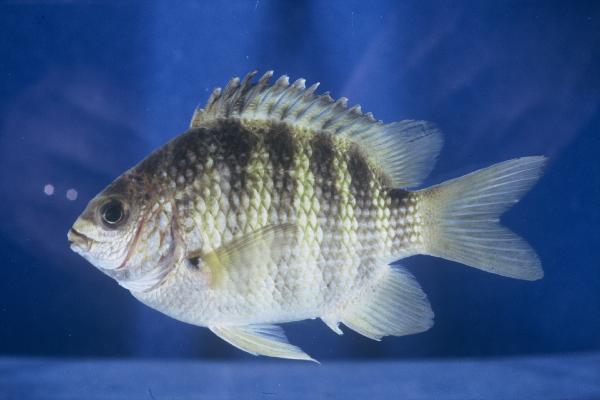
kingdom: Animalia
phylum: Chordata
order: Perciformes
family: Pomacentridae
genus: Abudefduf
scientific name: Abudefduf septemfasciatus
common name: Banded sergeant
